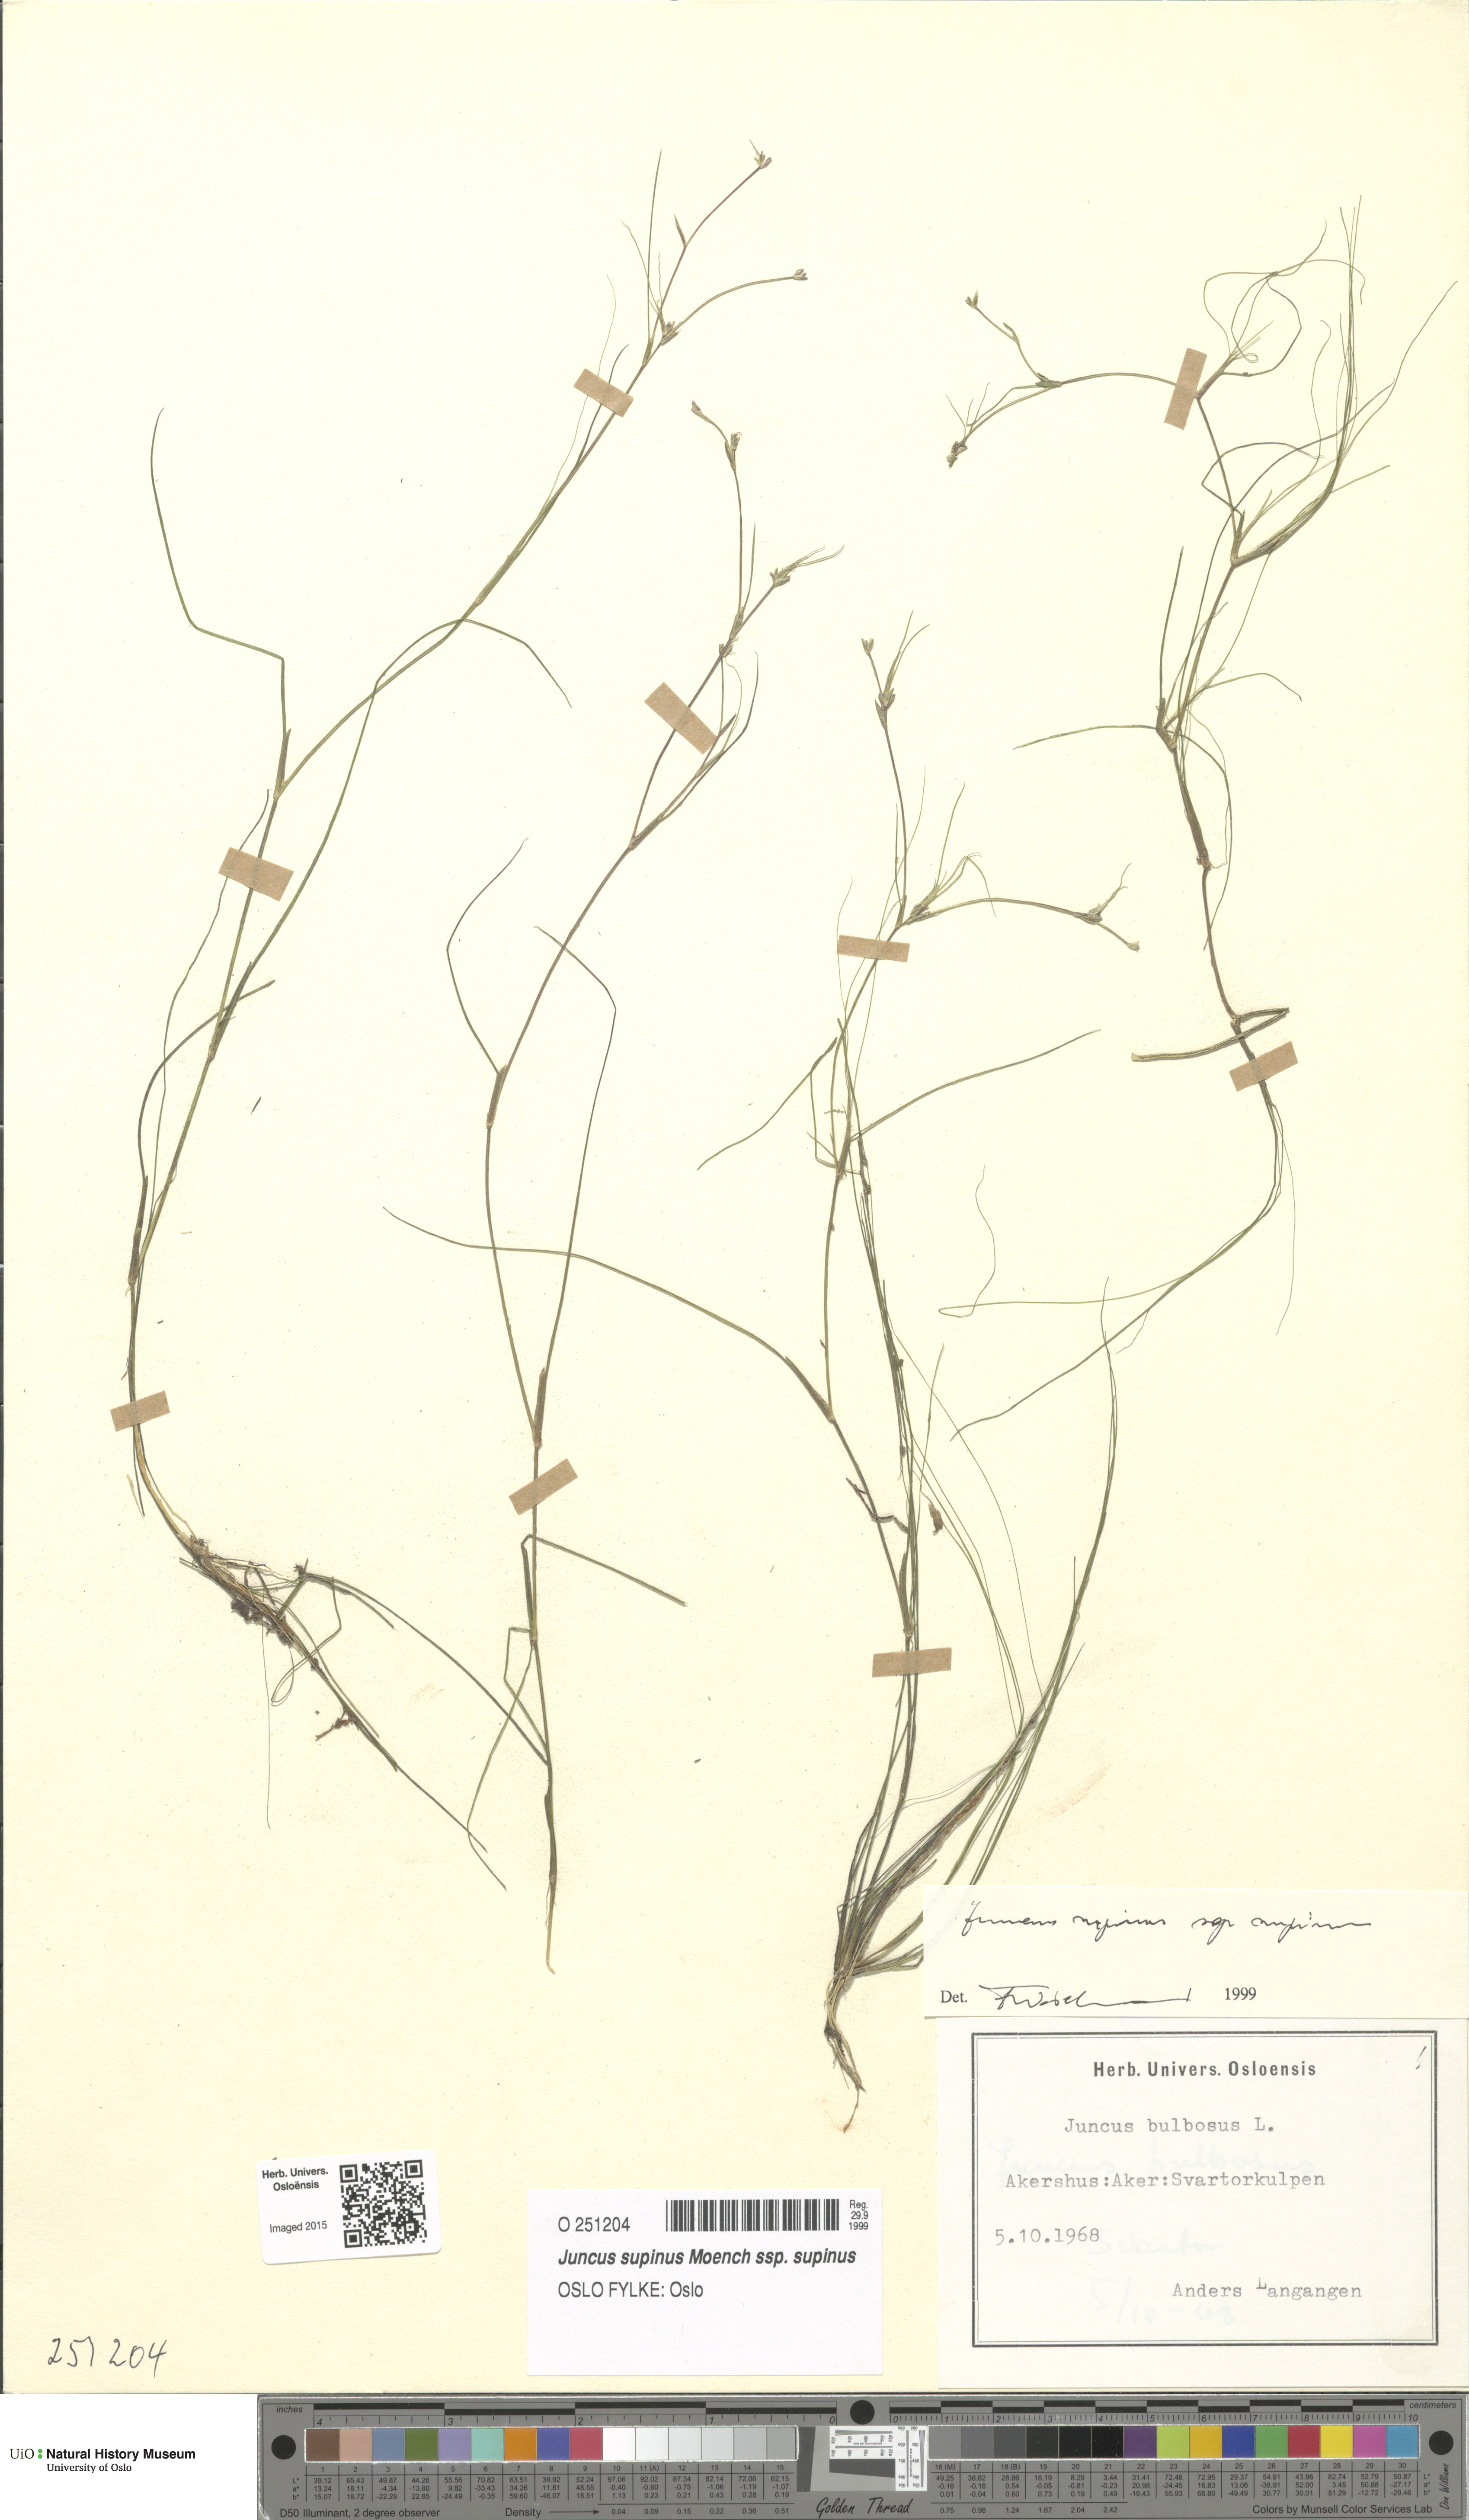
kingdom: Plantae
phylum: Tracheophyta
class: Liliopsida
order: Poales
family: Juncaceae
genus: Juncus
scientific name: Juncus bulbosus
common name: Bulbous rush
